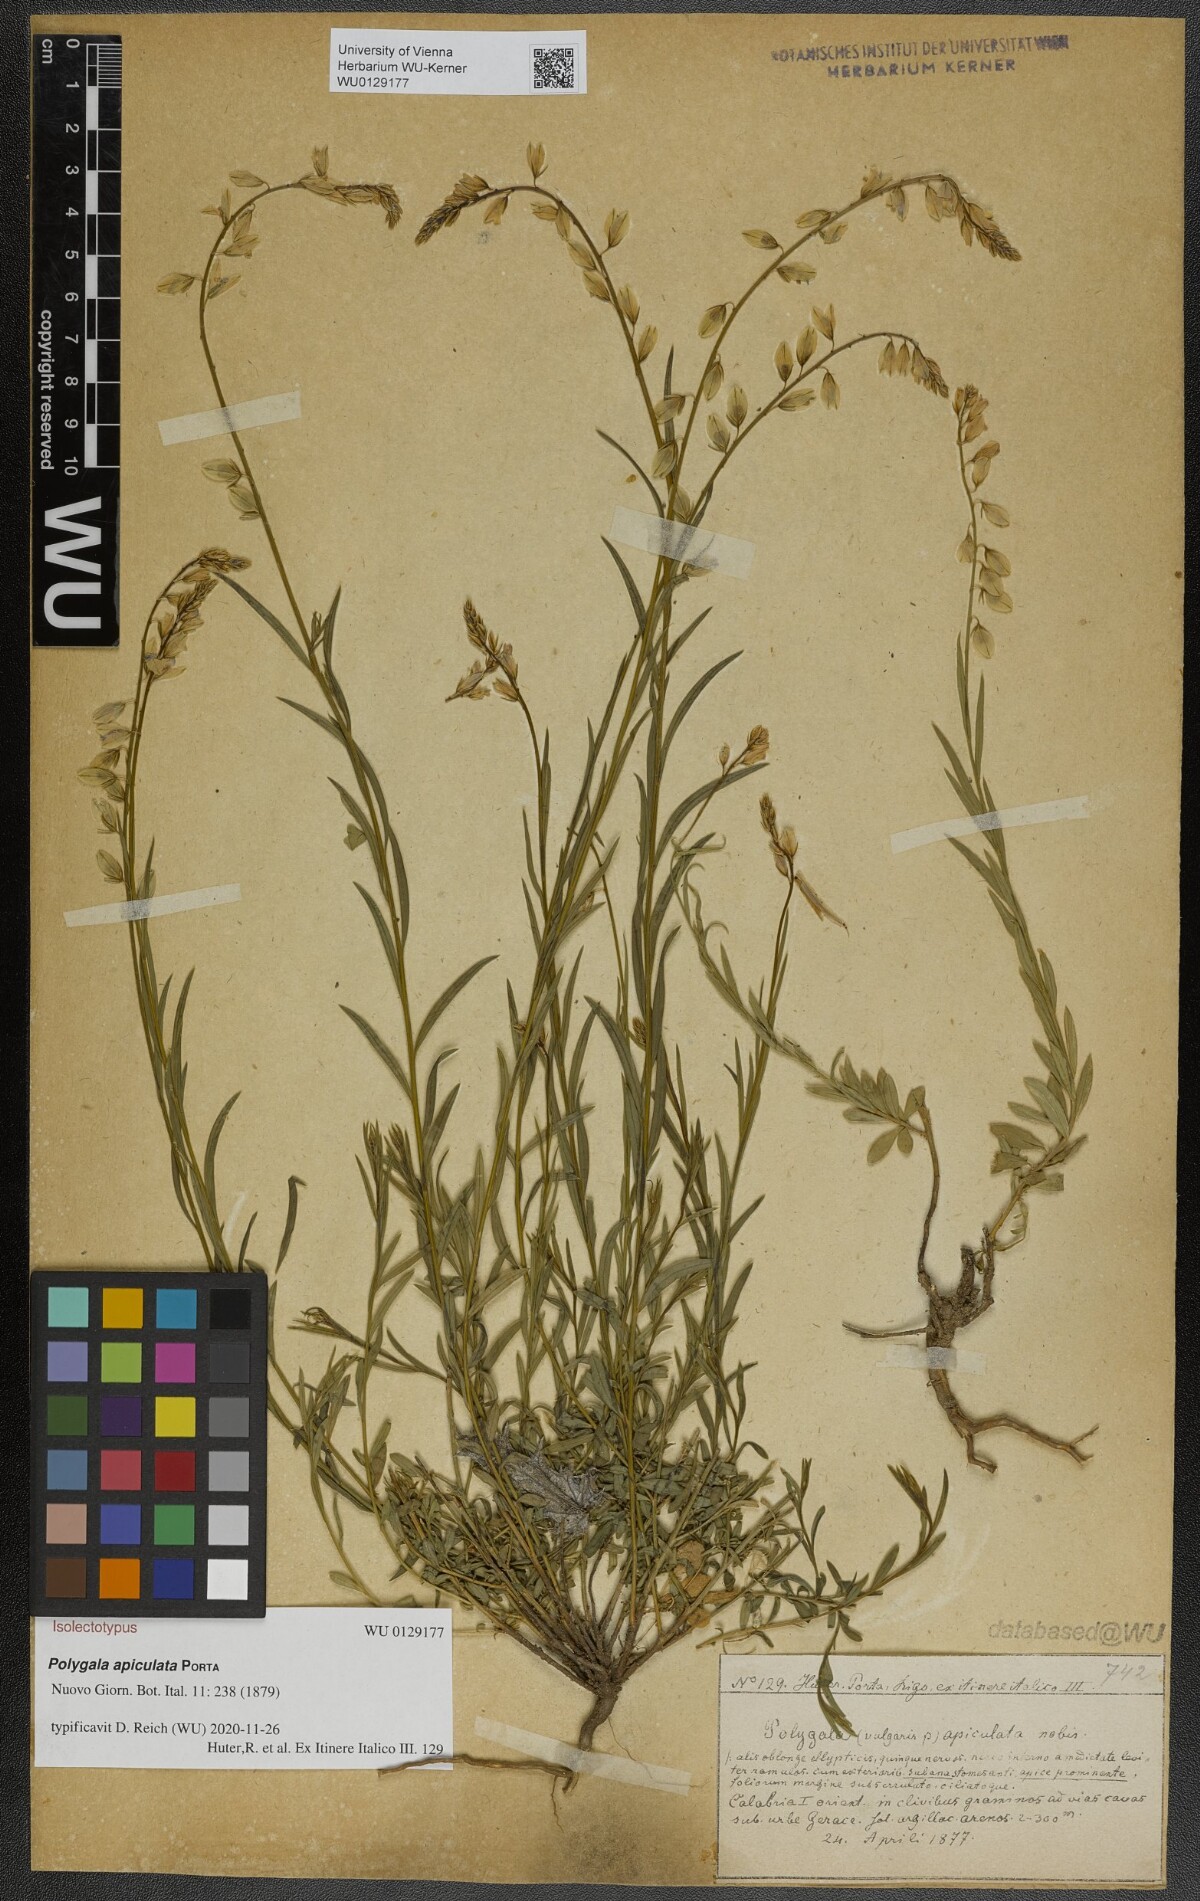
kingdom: Plantae
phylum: Tracheophyta
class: Magnoliopsida
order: Fabales
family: Polygalaceae
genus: Polygala
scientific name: Polygala apiculata
